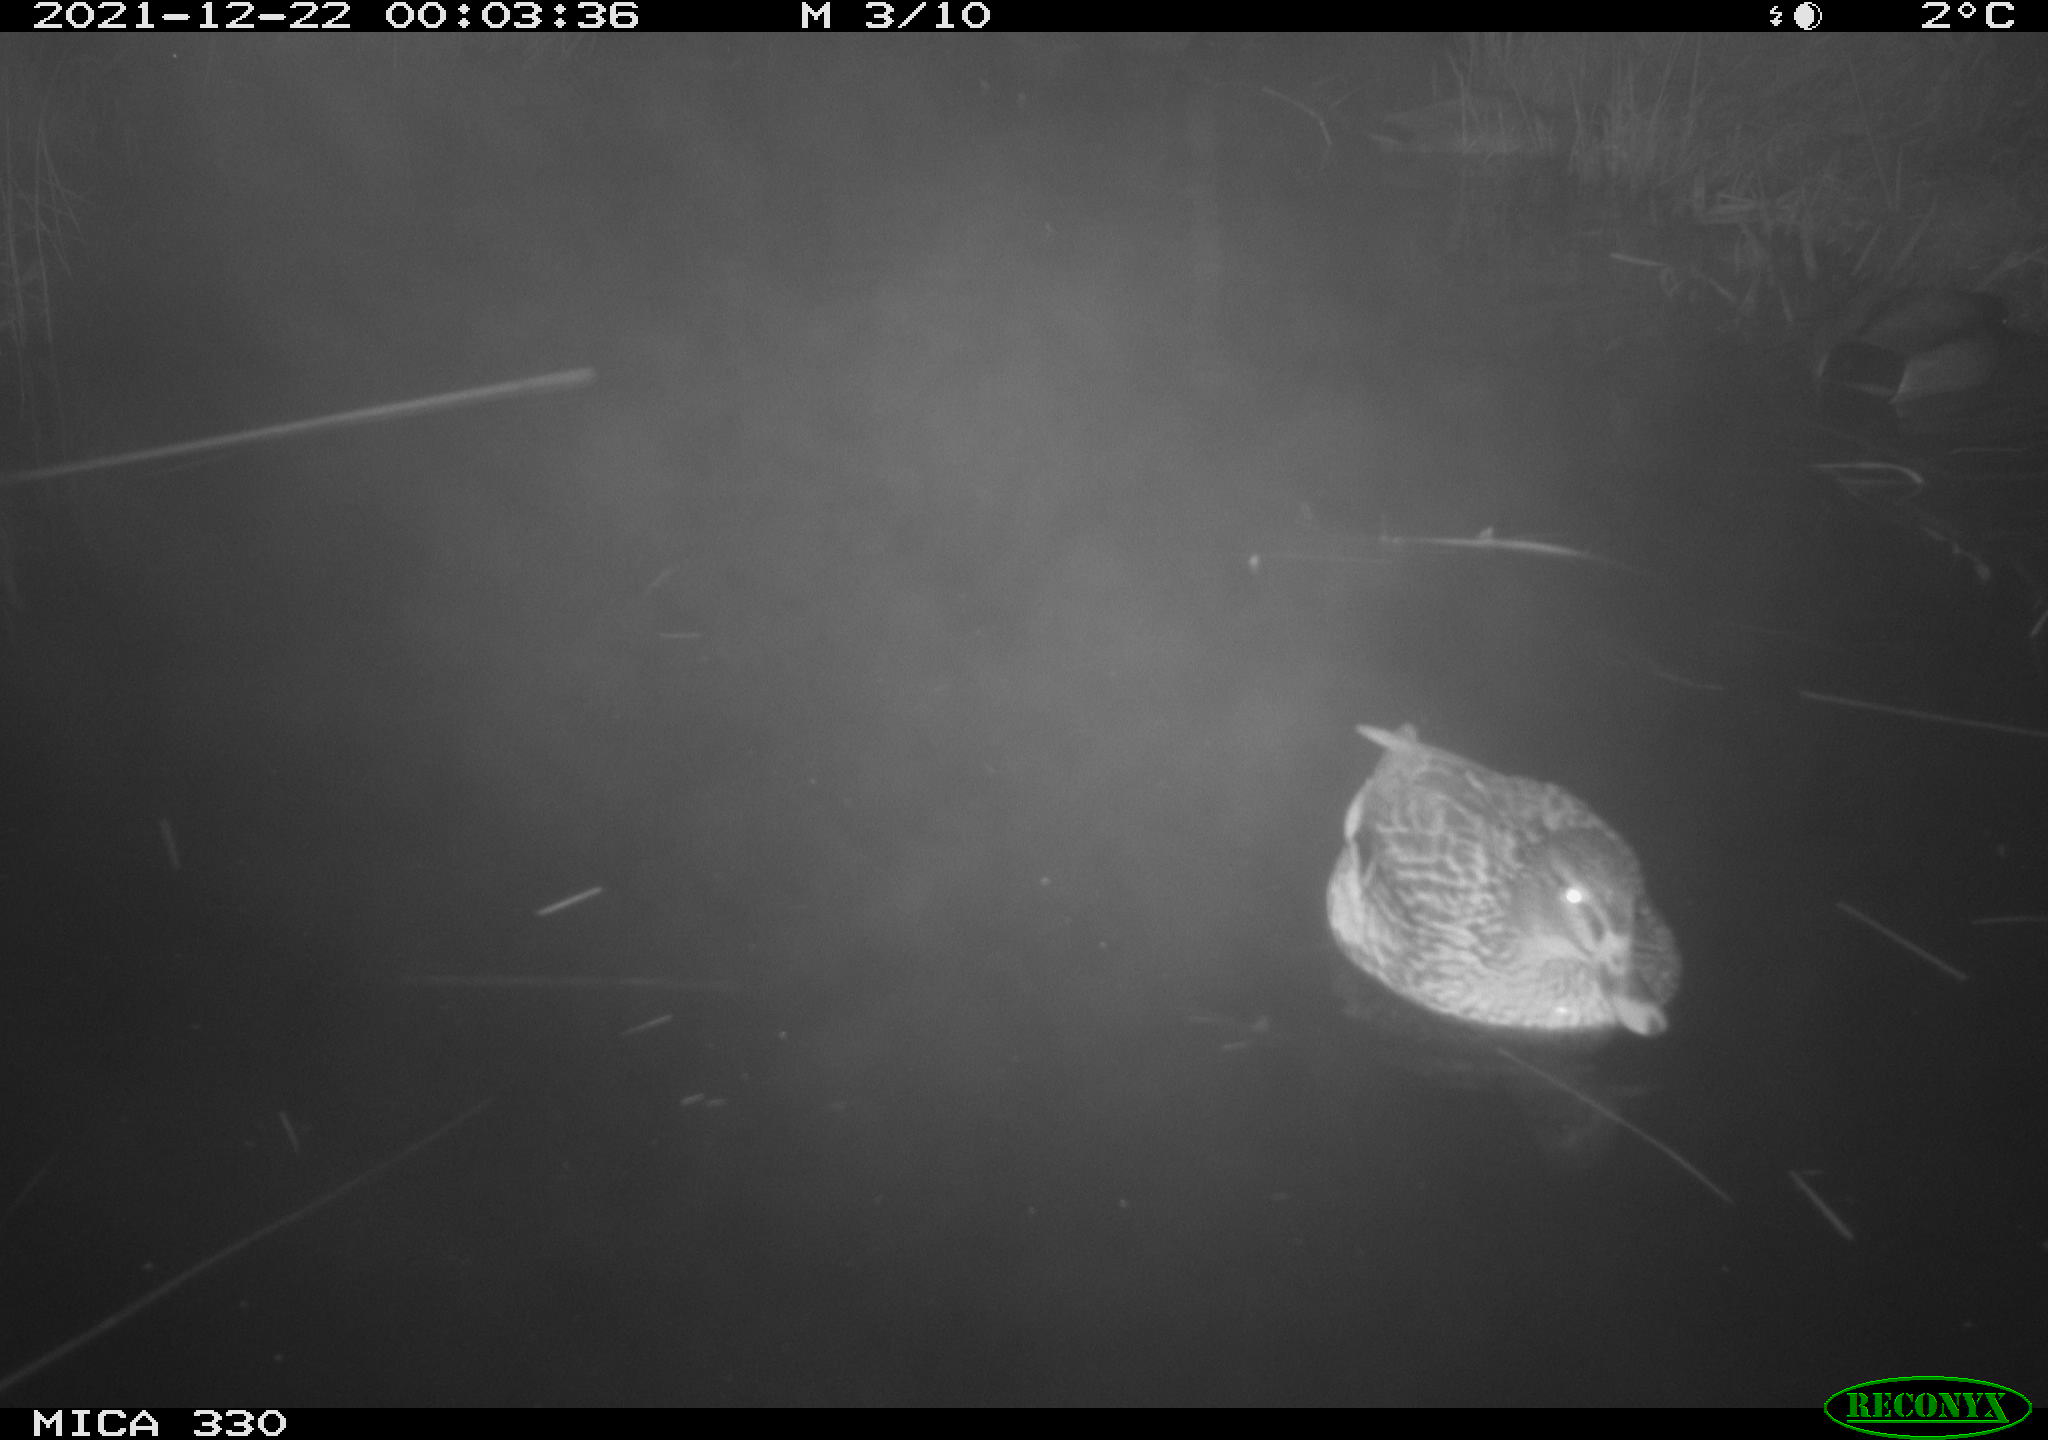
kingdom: Animalia
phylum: Chordata
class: Aves
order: Anseriformes
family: Anatidae
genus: Anas
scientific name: Anas platyrhynchos
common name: Mallard
